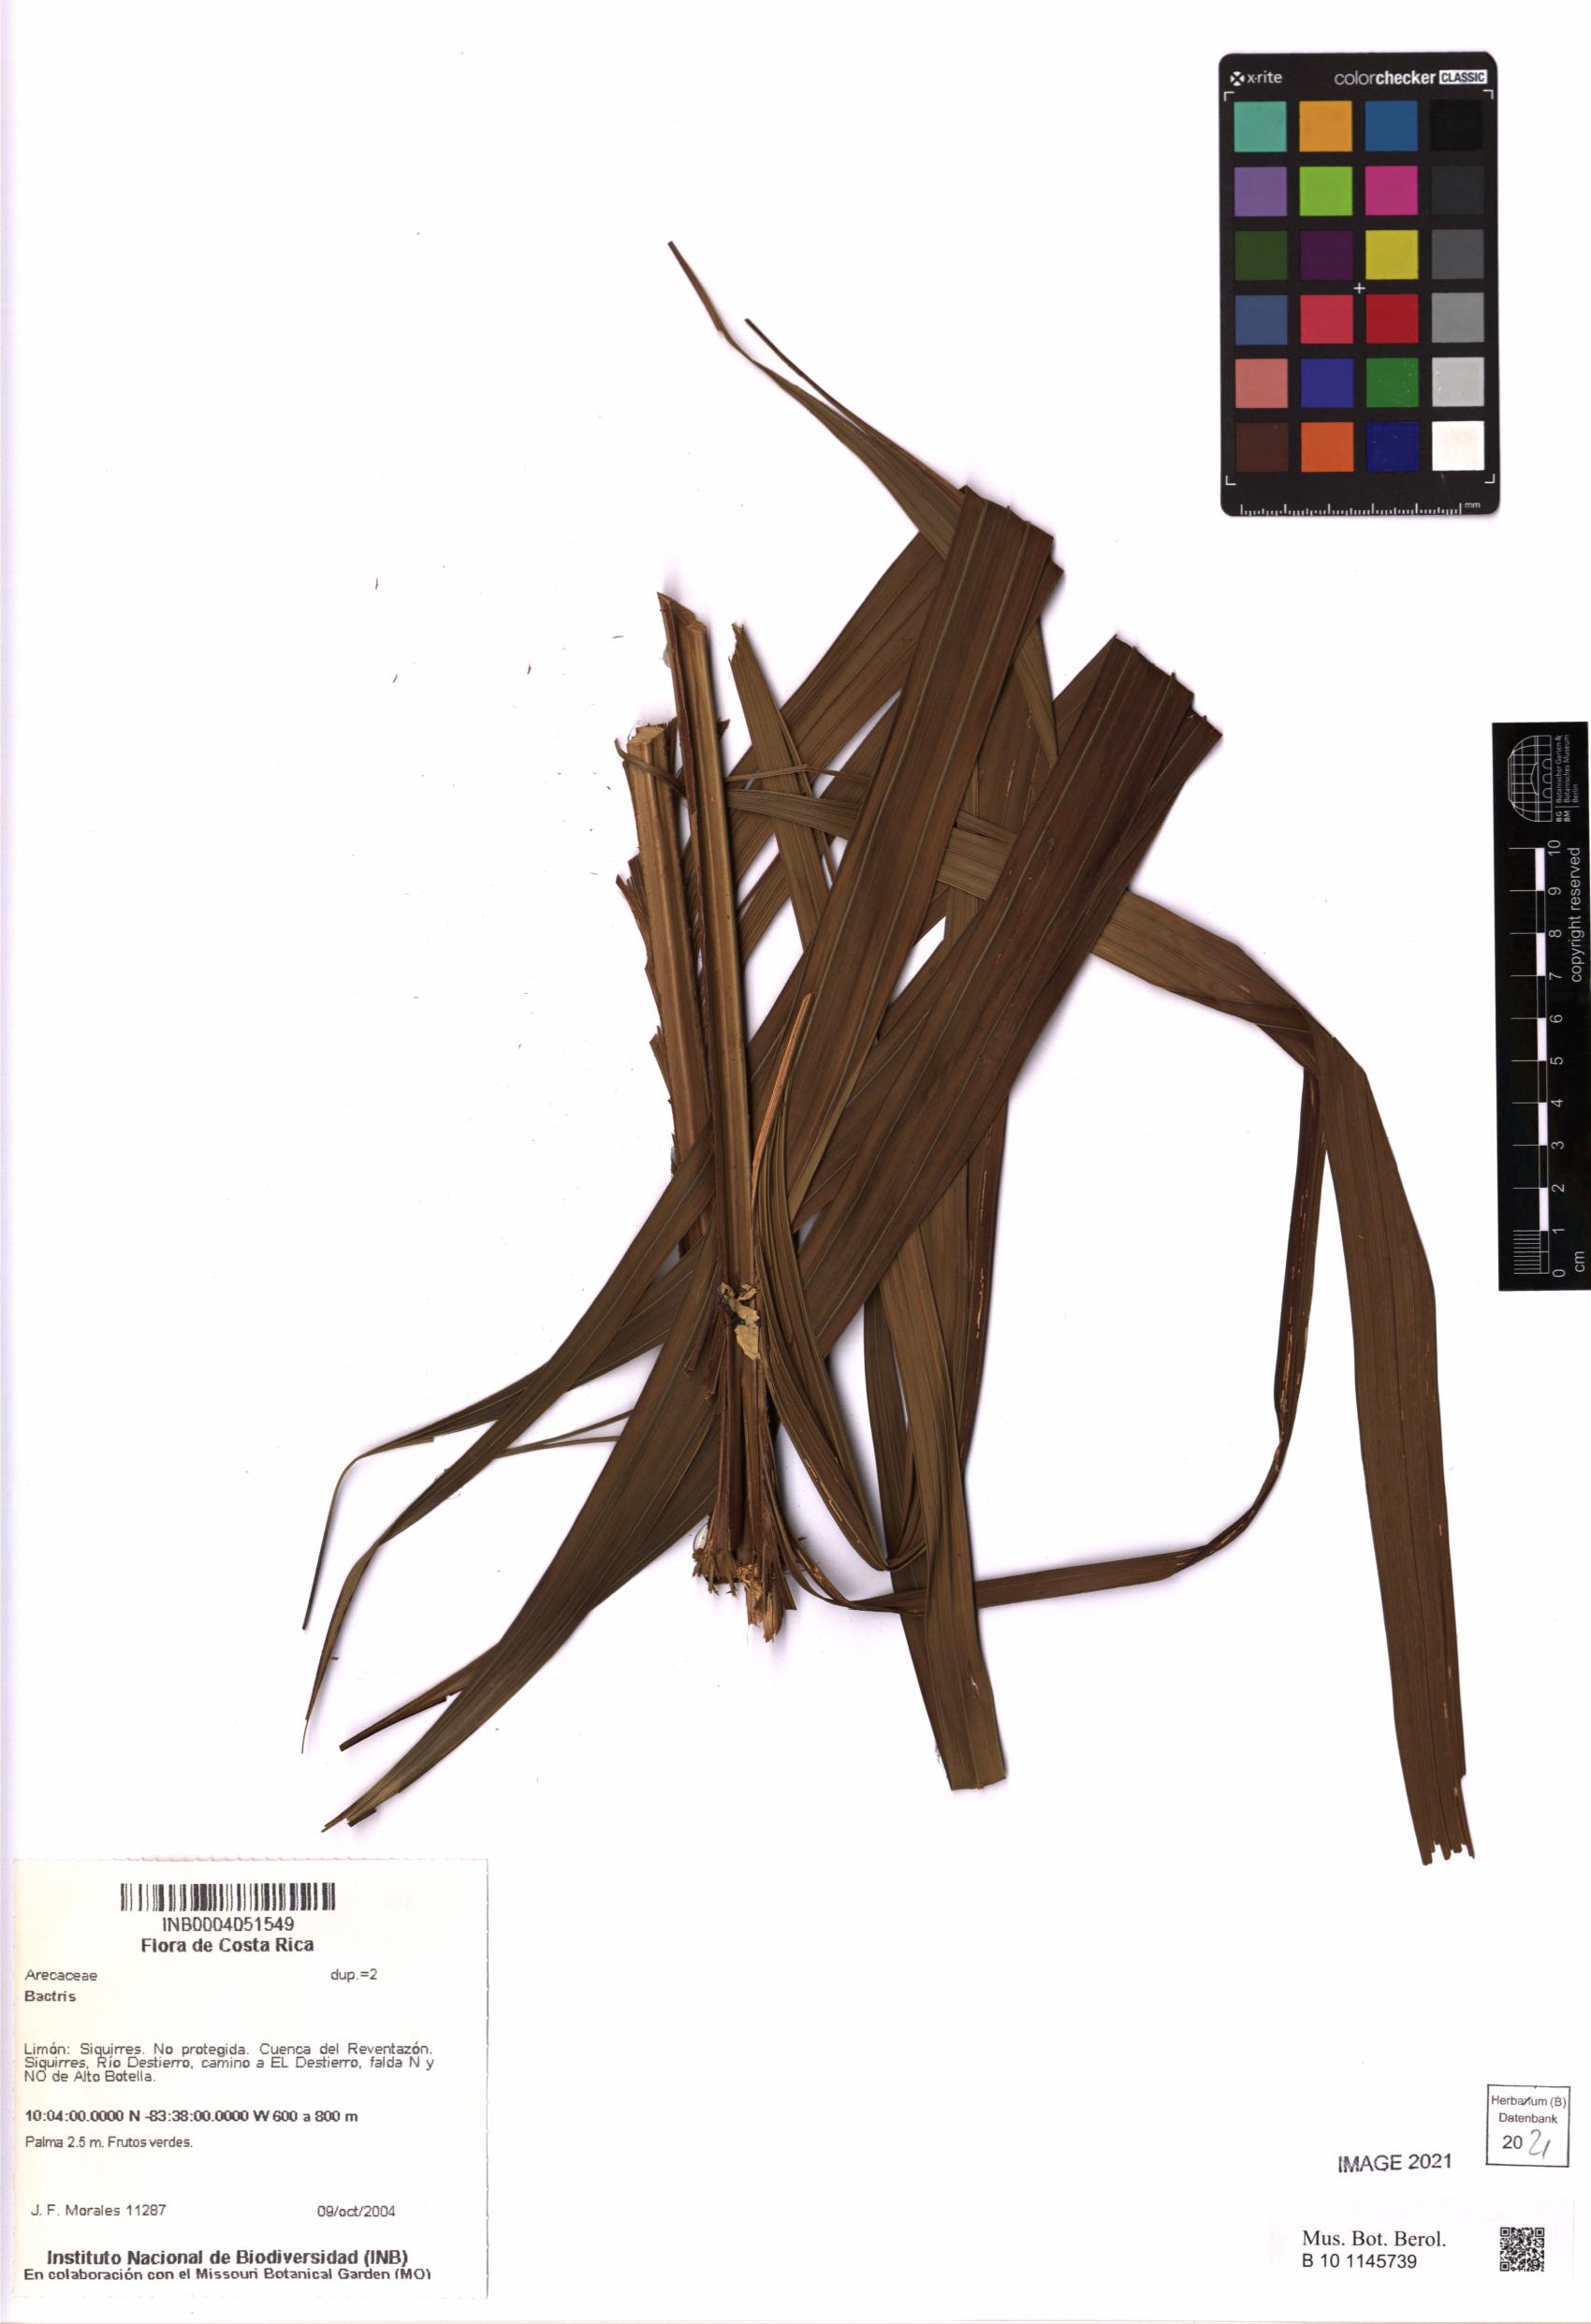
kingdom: Plantae
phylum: Tracheophyta
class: Liliopsida
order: Arecales
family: Arecaceae
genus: Bactris
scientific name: Bactris
